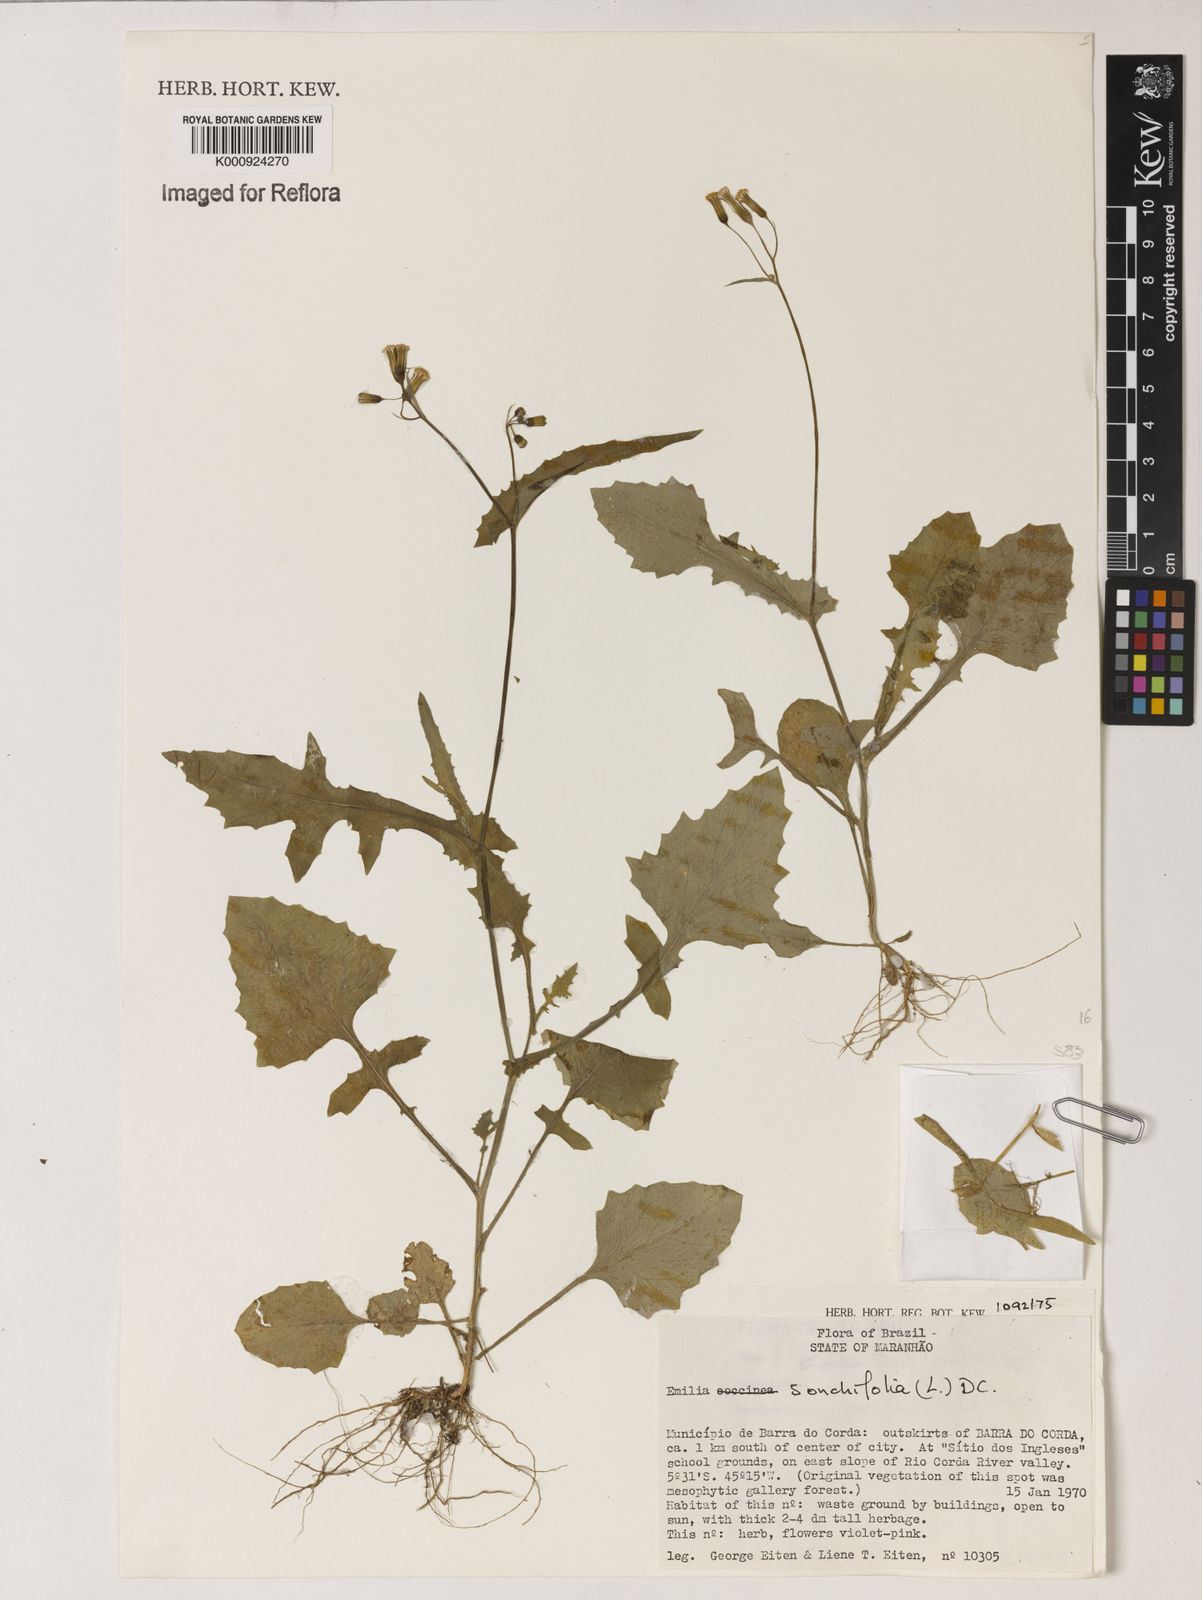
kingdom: Plantae
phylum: Tracheophyta
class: Magnoliopsida
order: Asterales
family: Asteraceae
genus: Emilia
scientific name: Emilia
